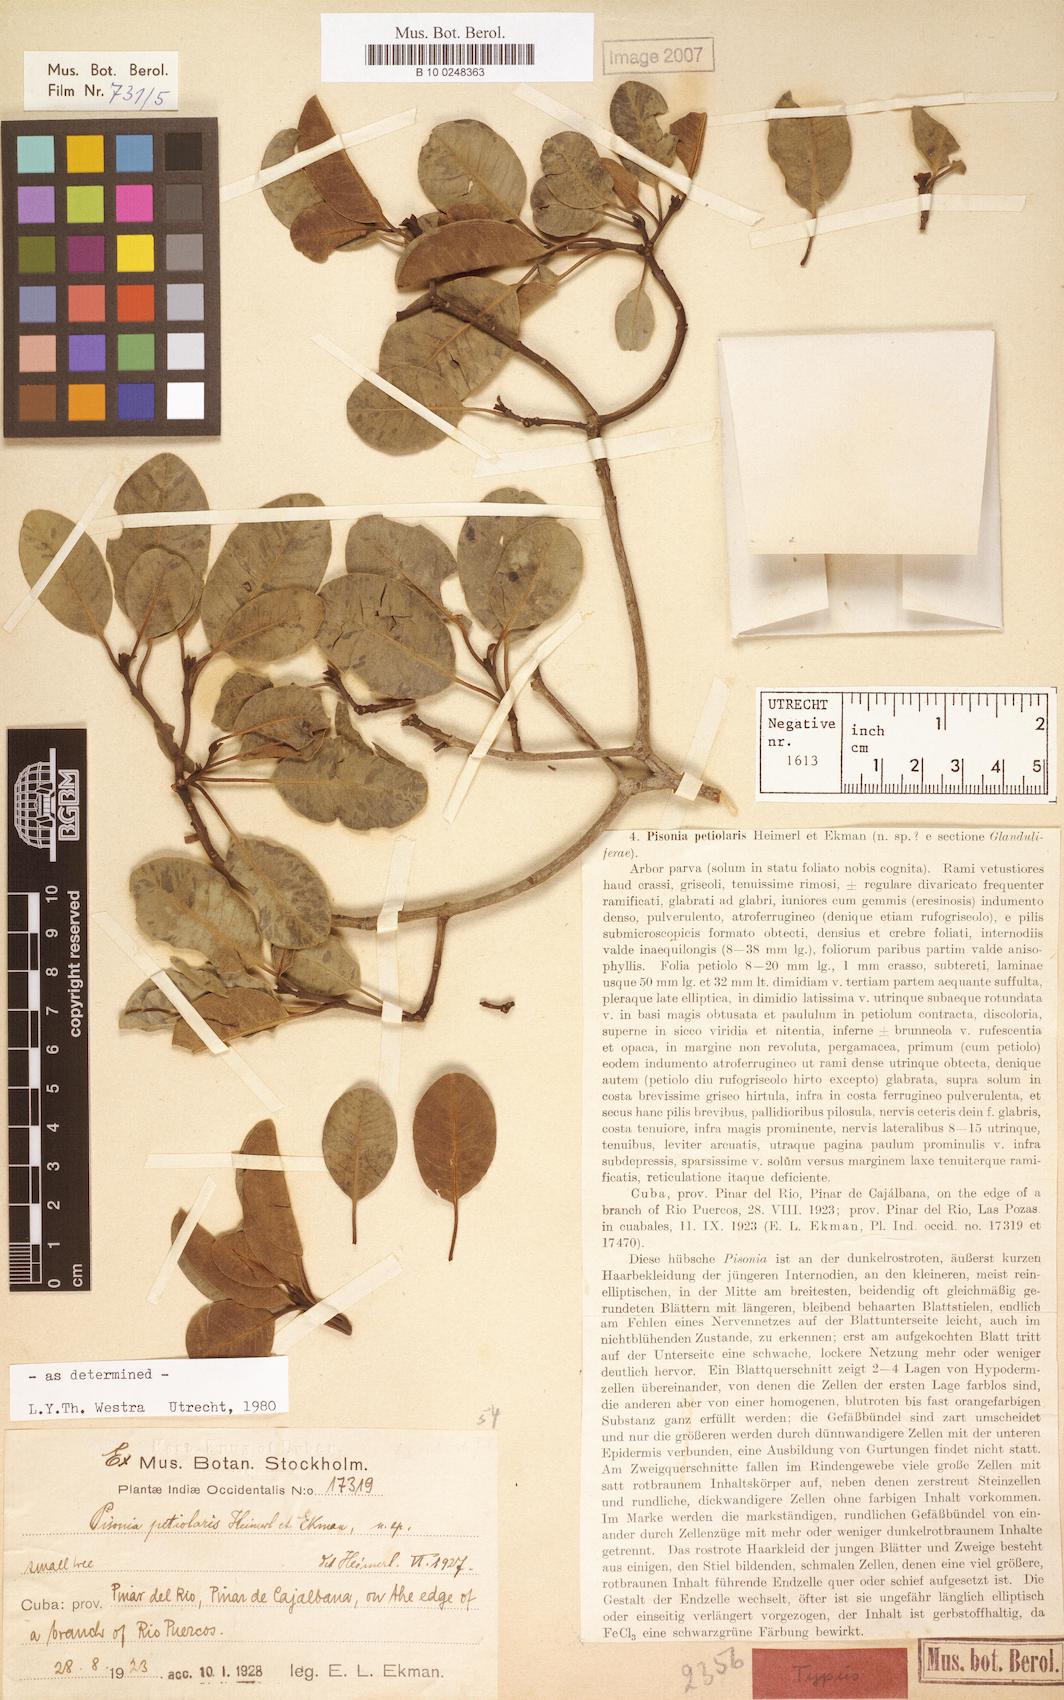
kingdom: Plantae
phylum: Tracheophyta
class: Magnoliopsida
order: Caryophyllales
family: Nyctaginaceae
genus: Pisonia
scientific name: Pisonia petiolaris
